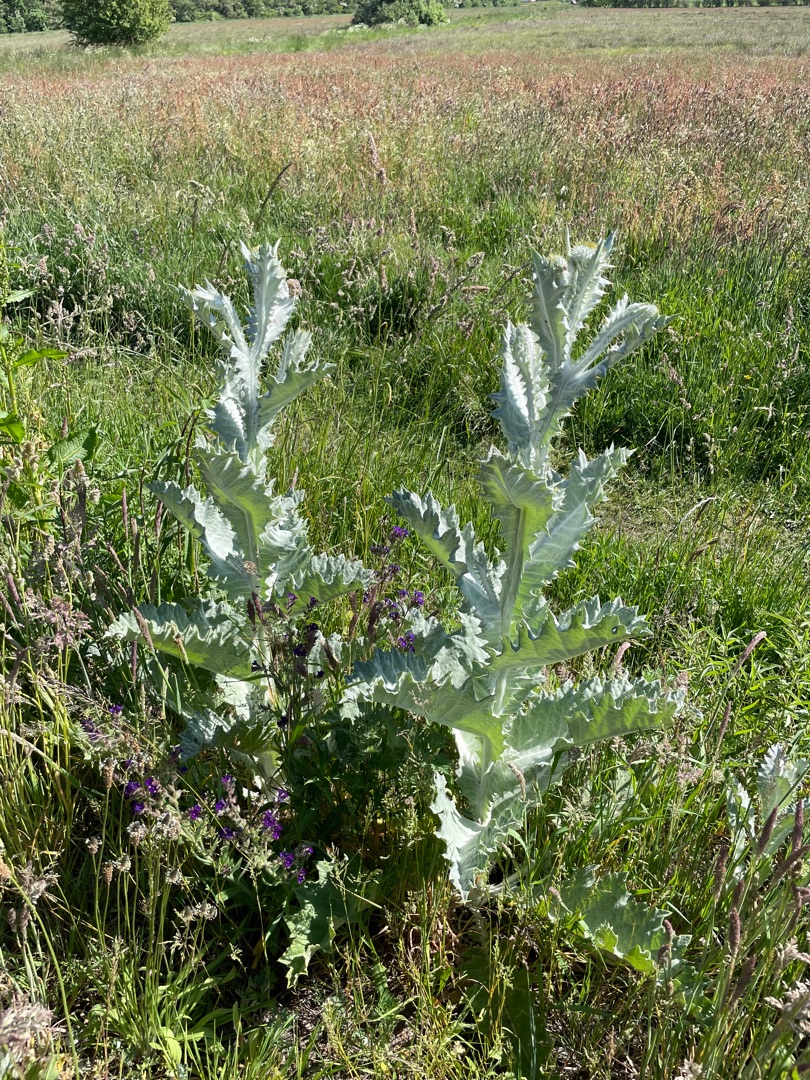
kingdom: Plantae
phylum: Tracheophyta
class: Magnoliopsida
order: Asterales
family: Asteraceae
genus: Onopordum
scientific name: Onopordum acanthium
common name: Æselfoder
